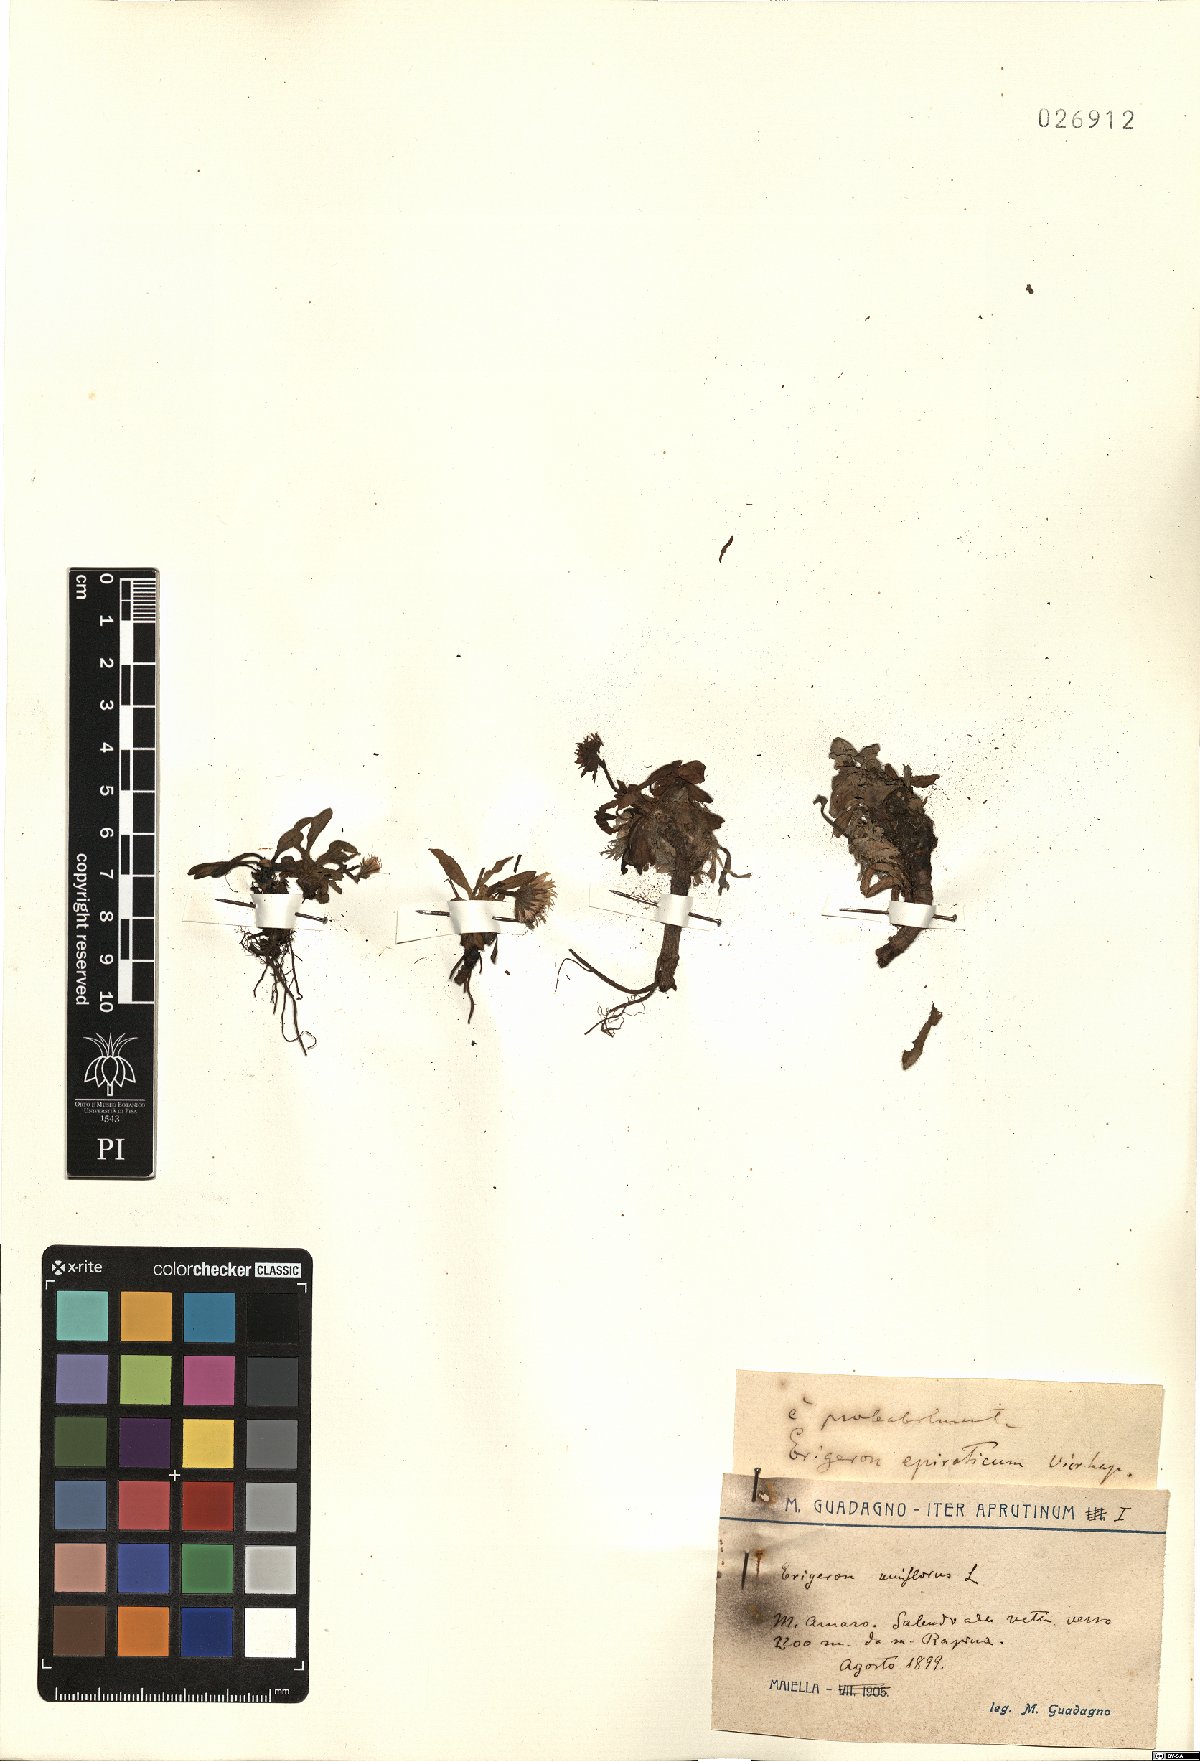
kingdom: Plantae
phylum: Tracheophyta
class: Magnoliopsida
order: Asterales
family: Asteraceae
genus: Erigeron
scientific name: Erigeron epiroticus
